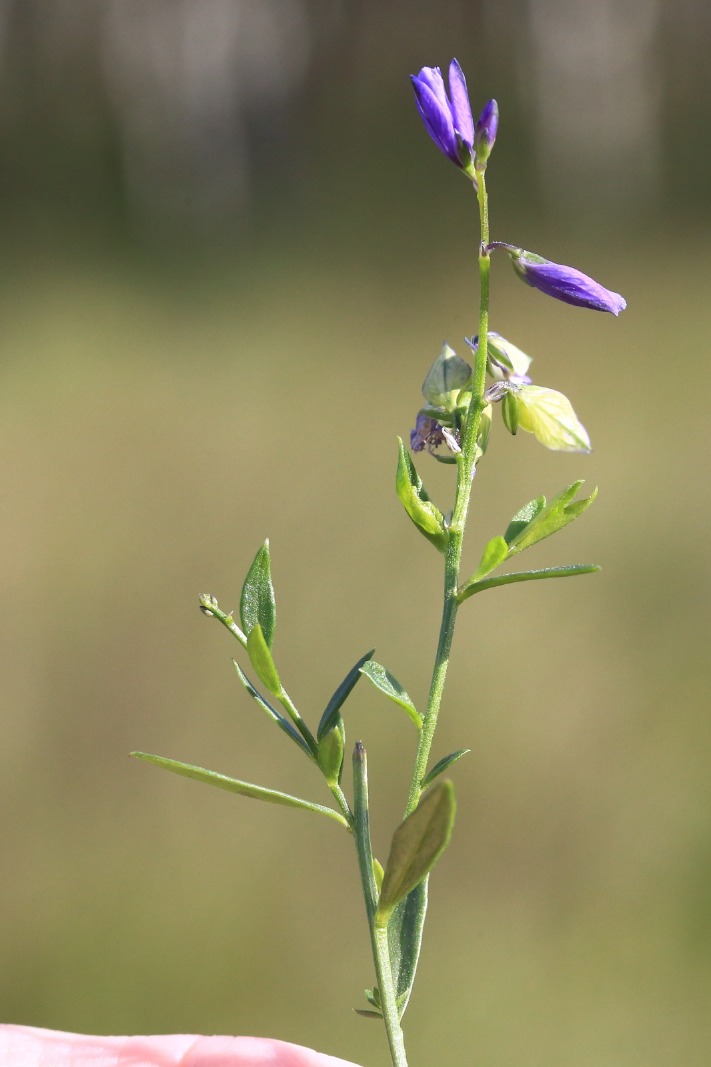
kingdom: Plantae
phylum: Tracheophyta
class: Magnoliopsida
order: Fabales
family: Polygalaceae
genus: Polygala
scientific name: Polygala vulgaris
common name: Almindelig mælkeurt
